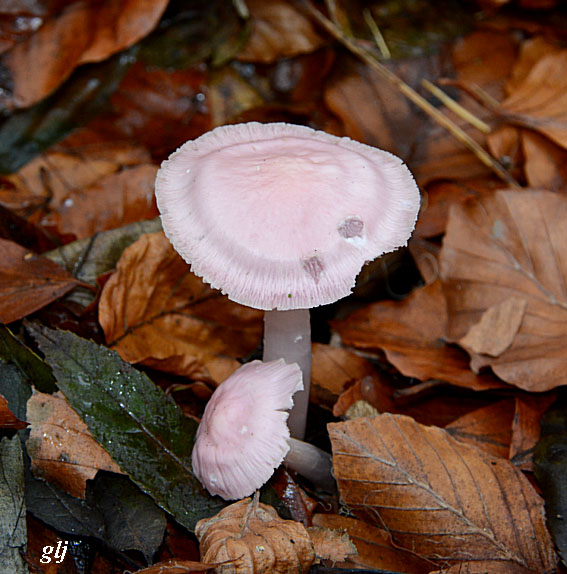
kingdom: Fungi
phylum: Basidiomycota
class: Agaricomycetes
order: Agaricales
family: Mycenaceae
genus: Mycena
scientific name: Mycena rosea
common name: rosa huesvamp
